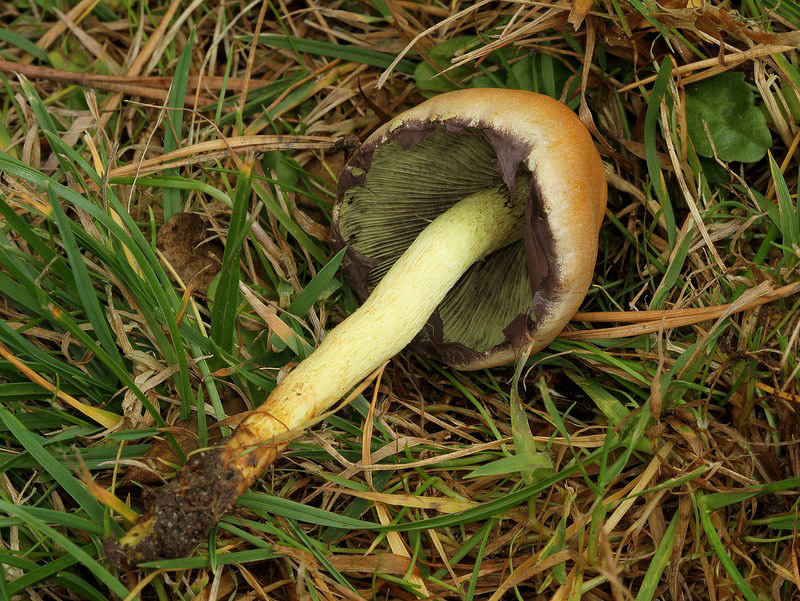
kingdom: Fungi
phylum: Basidiomycota
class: Agaricomycetes
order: Agaricales
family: Strophariaceae
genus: Hypholoma
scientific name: Hypholoma fasciculare
